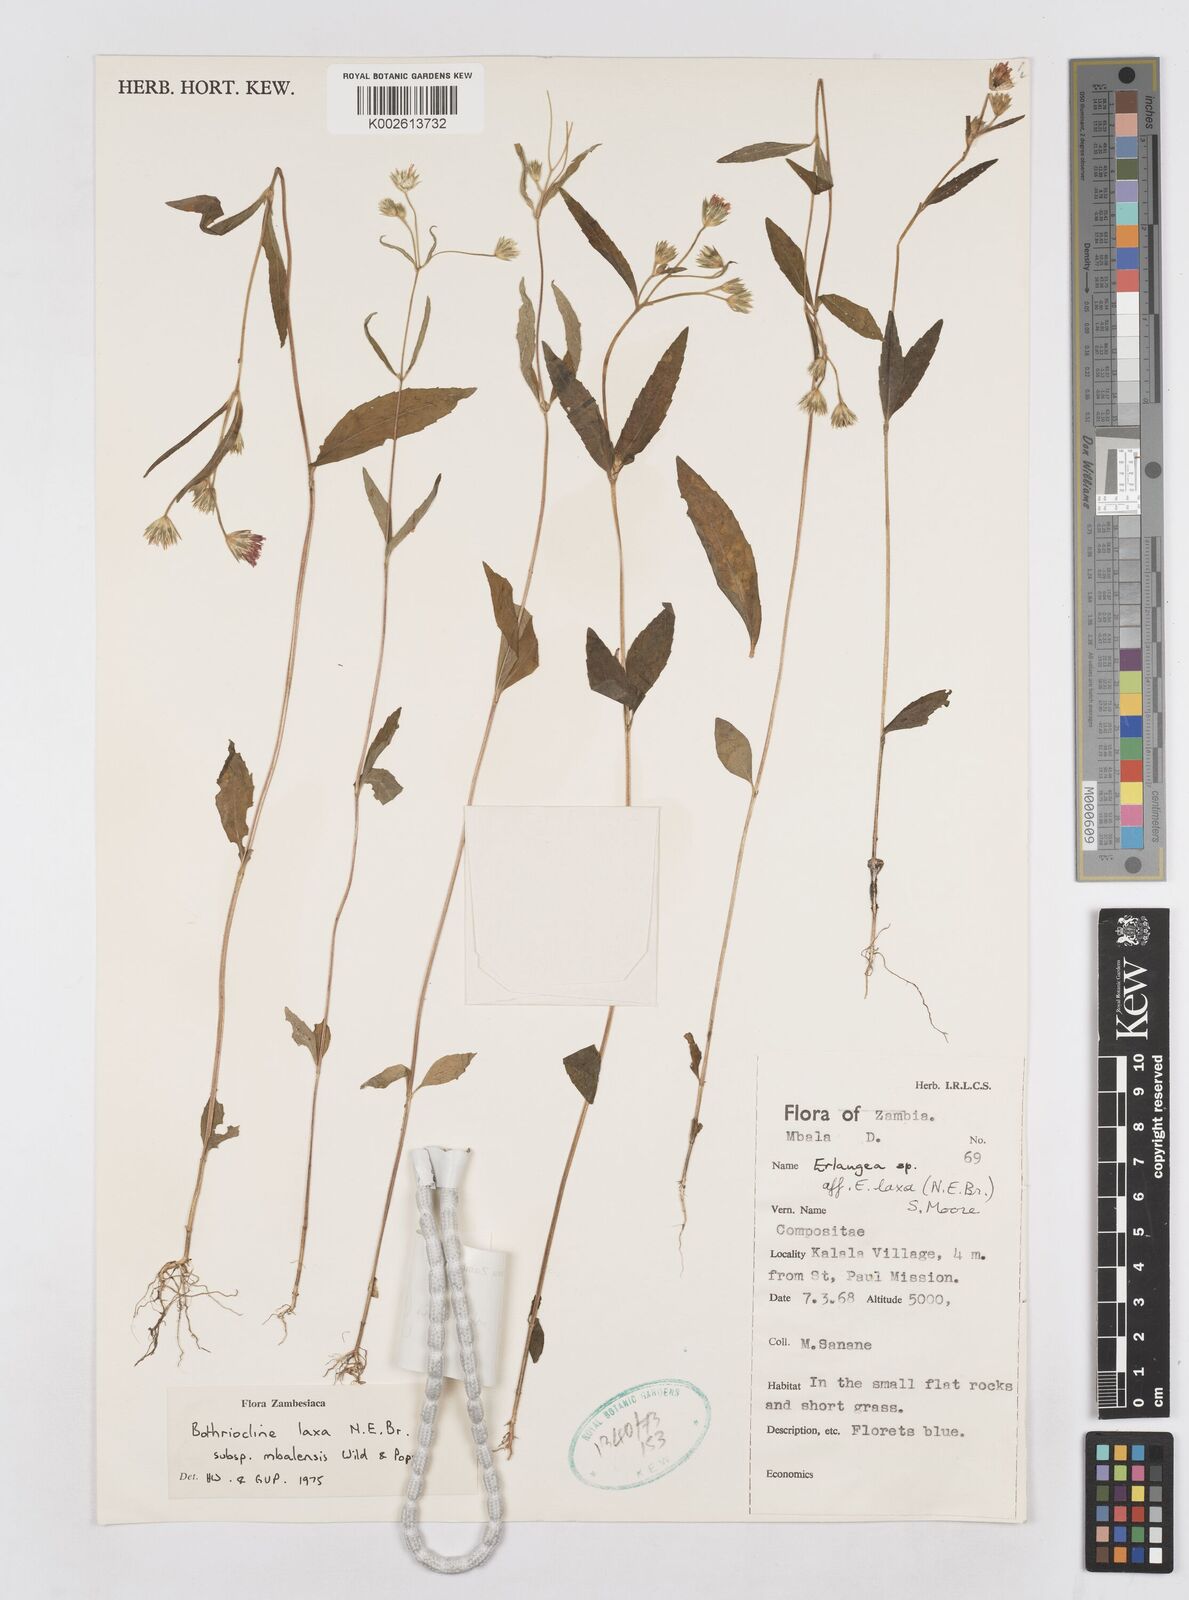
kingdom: Plantae
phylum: Tracheophyta
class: Magnoliopsida
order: Asterales
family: Asteraceae
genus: Bothriocline
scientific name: Bothriocline mbalensis
